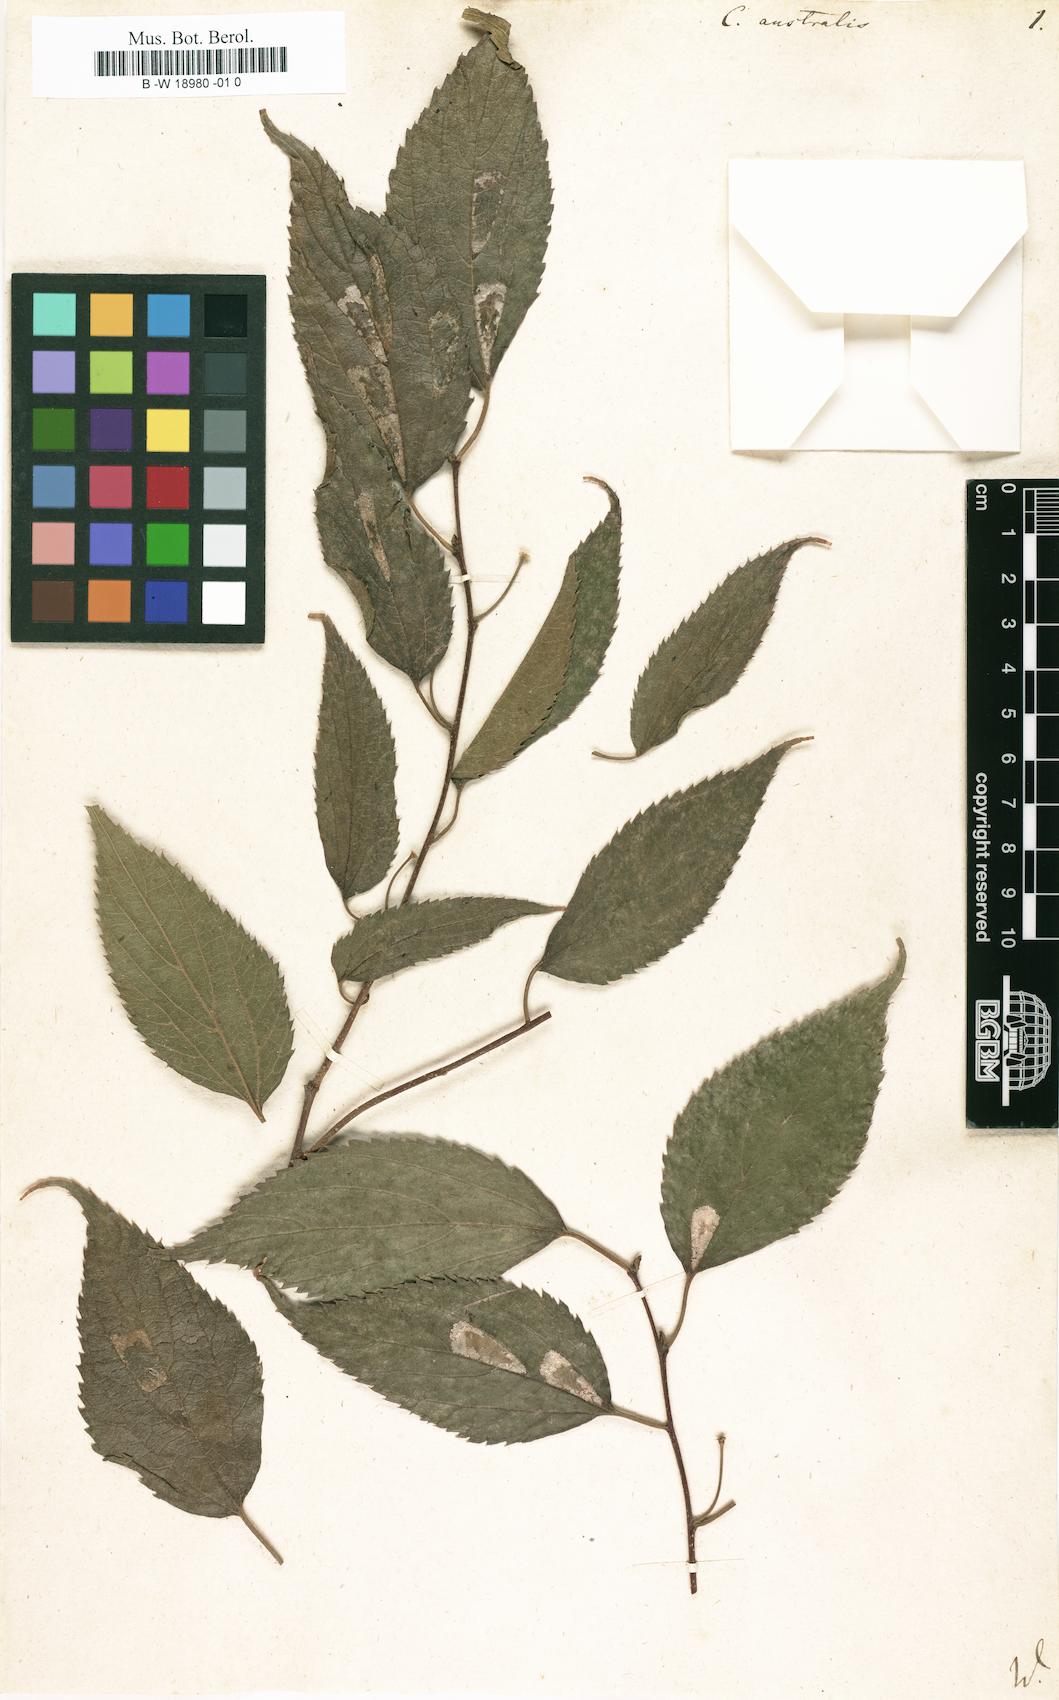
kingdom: Plantae
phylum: Tracheophyta
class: Magnoliopsida
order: Rosales
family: Cannabaceae
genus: Celtis
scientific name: Celtis australis
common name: European hackberry
